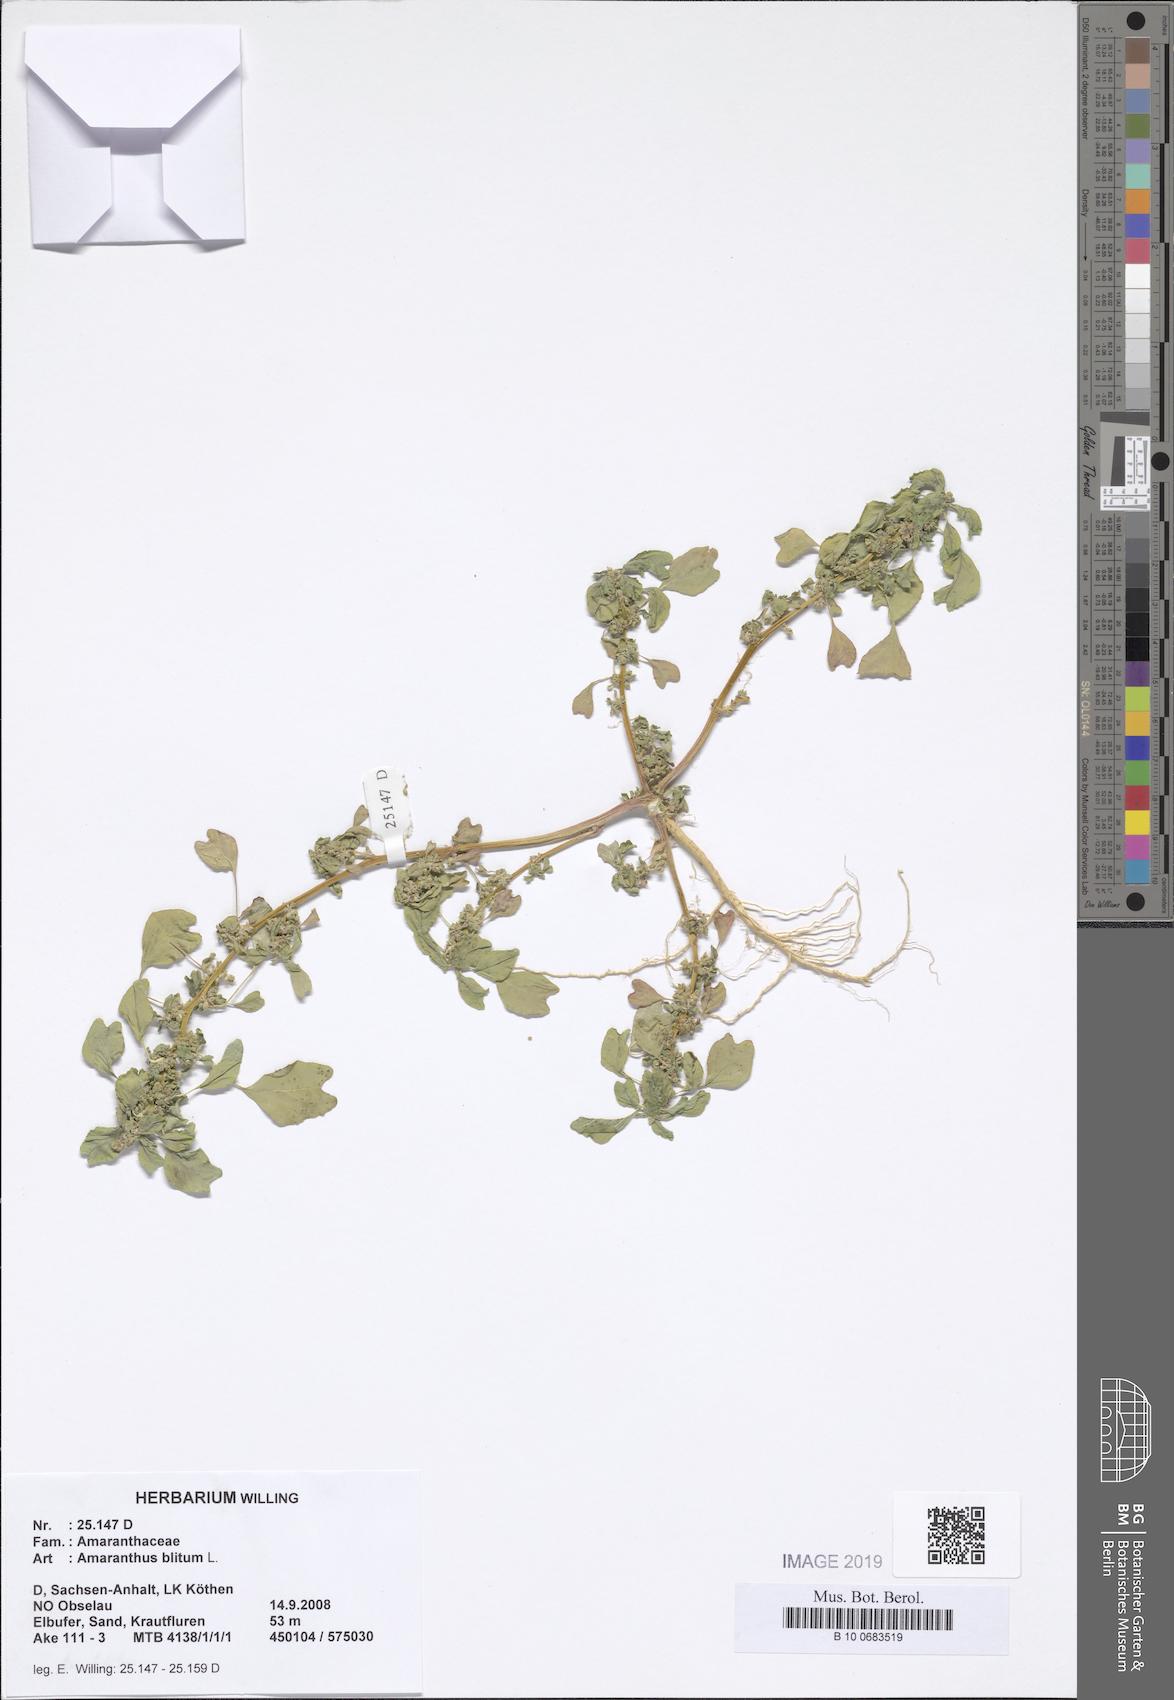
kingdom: Plantae
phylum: Tracheophyta
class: Magnoliopsida
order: Caryophyllales
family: Amaranthaceae
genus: Amaranthus
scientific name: Amaranthus blitum
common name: Purple amaranth
